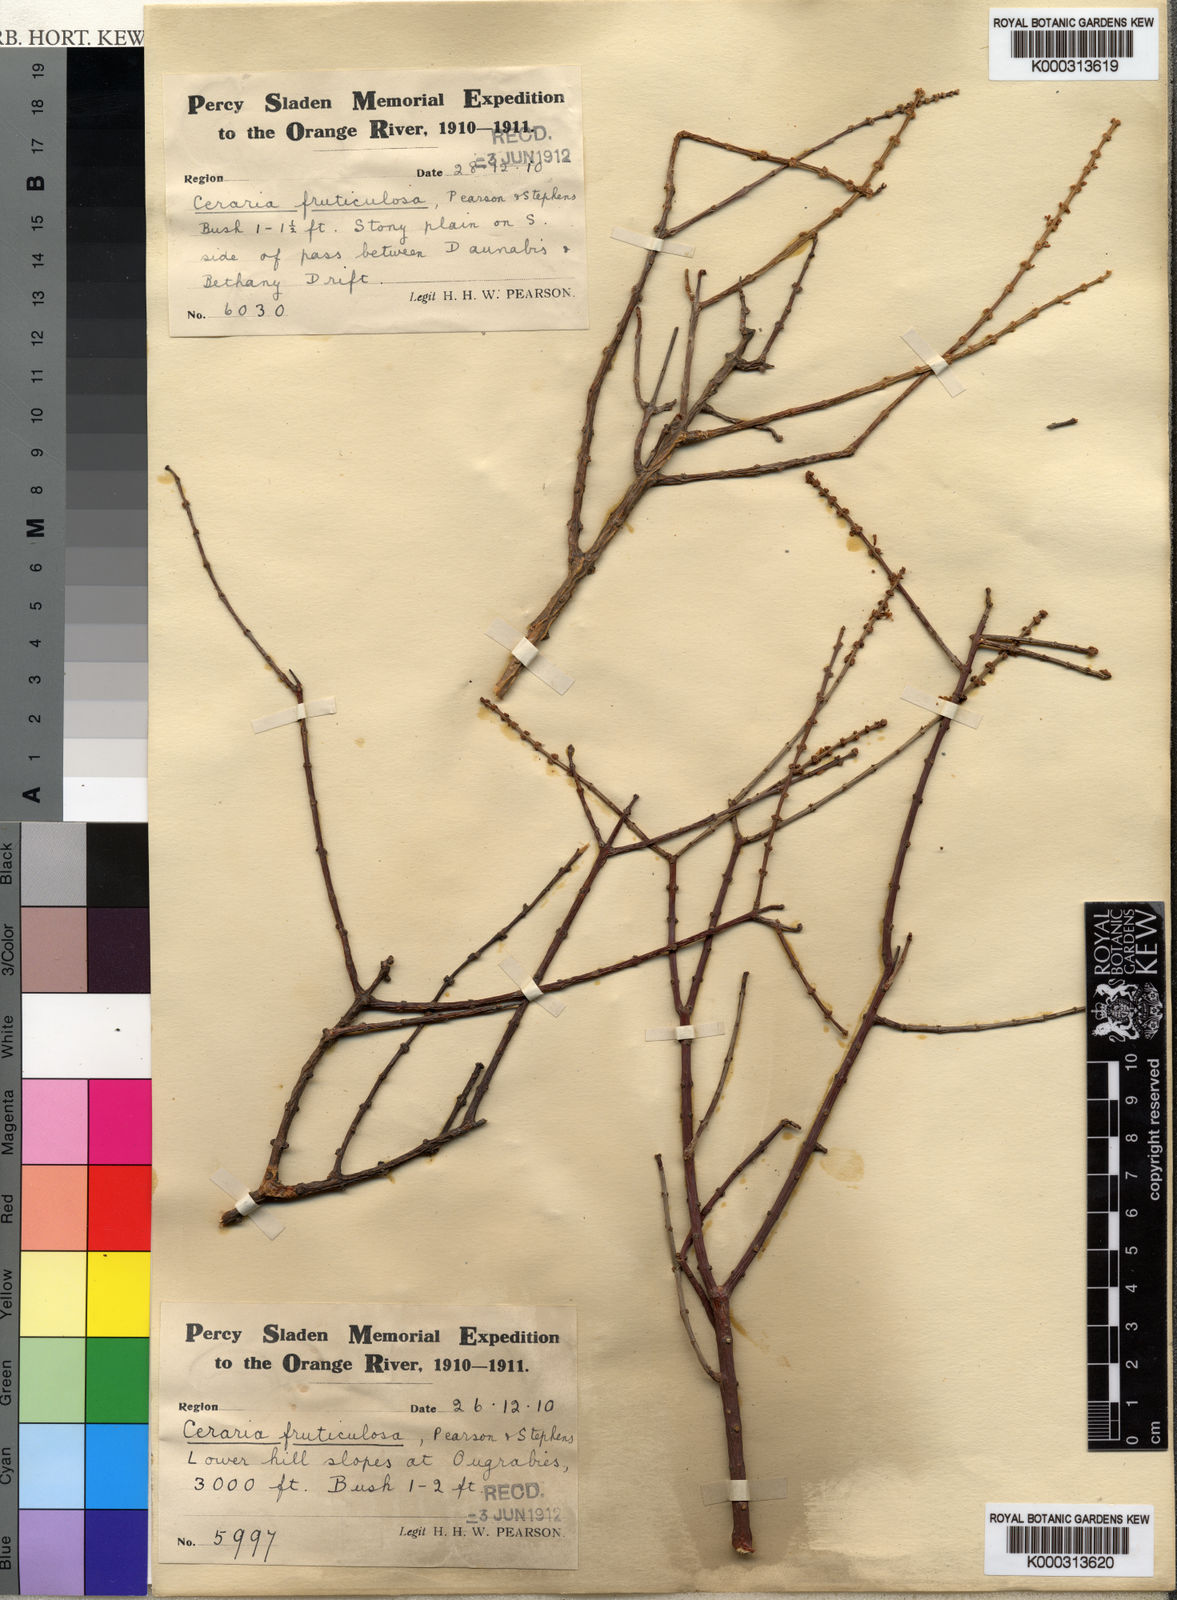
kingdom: Plantae
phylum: Tracheophyta
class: Magnoliopsida
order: Caryophyllales
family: Didiereaceae
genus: Portulacaria
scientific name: Portulacaria fruticulosa
